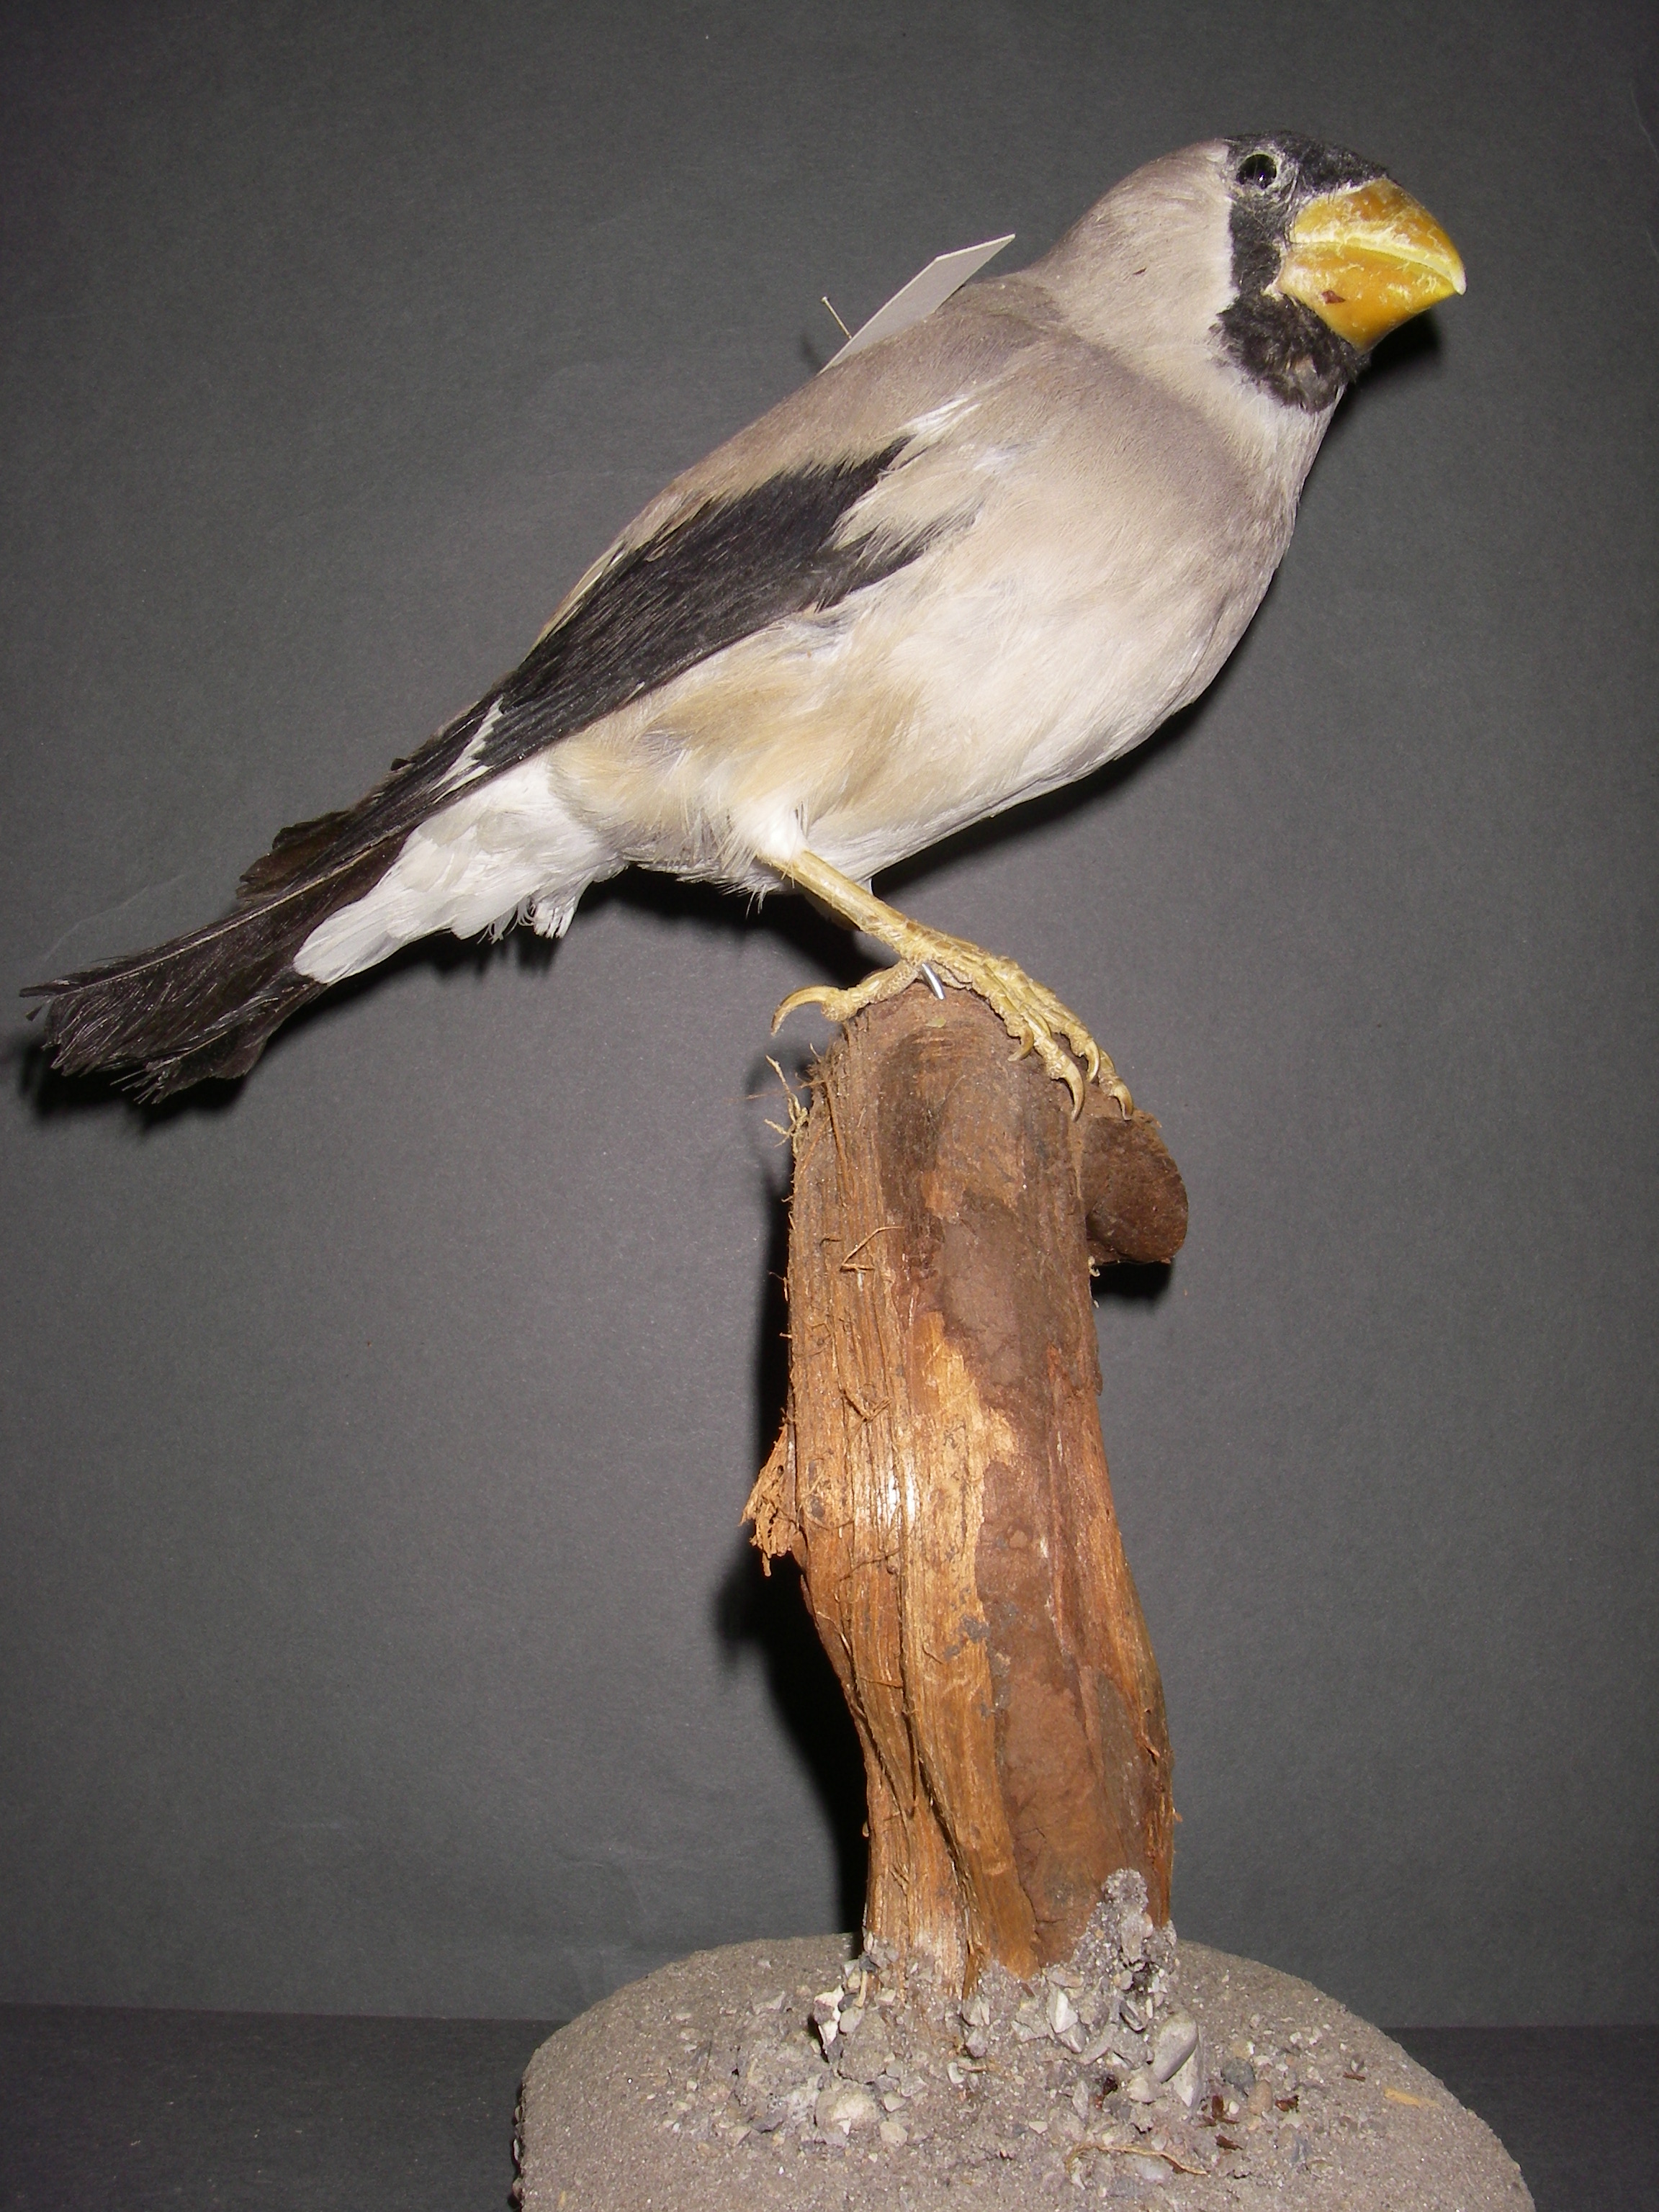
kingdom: Animalia
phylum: Chordata
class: Aves
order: Passeriformes
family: Fringillidae
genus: Eophona
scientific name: Eophona personata
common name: Japanese grosbeak
